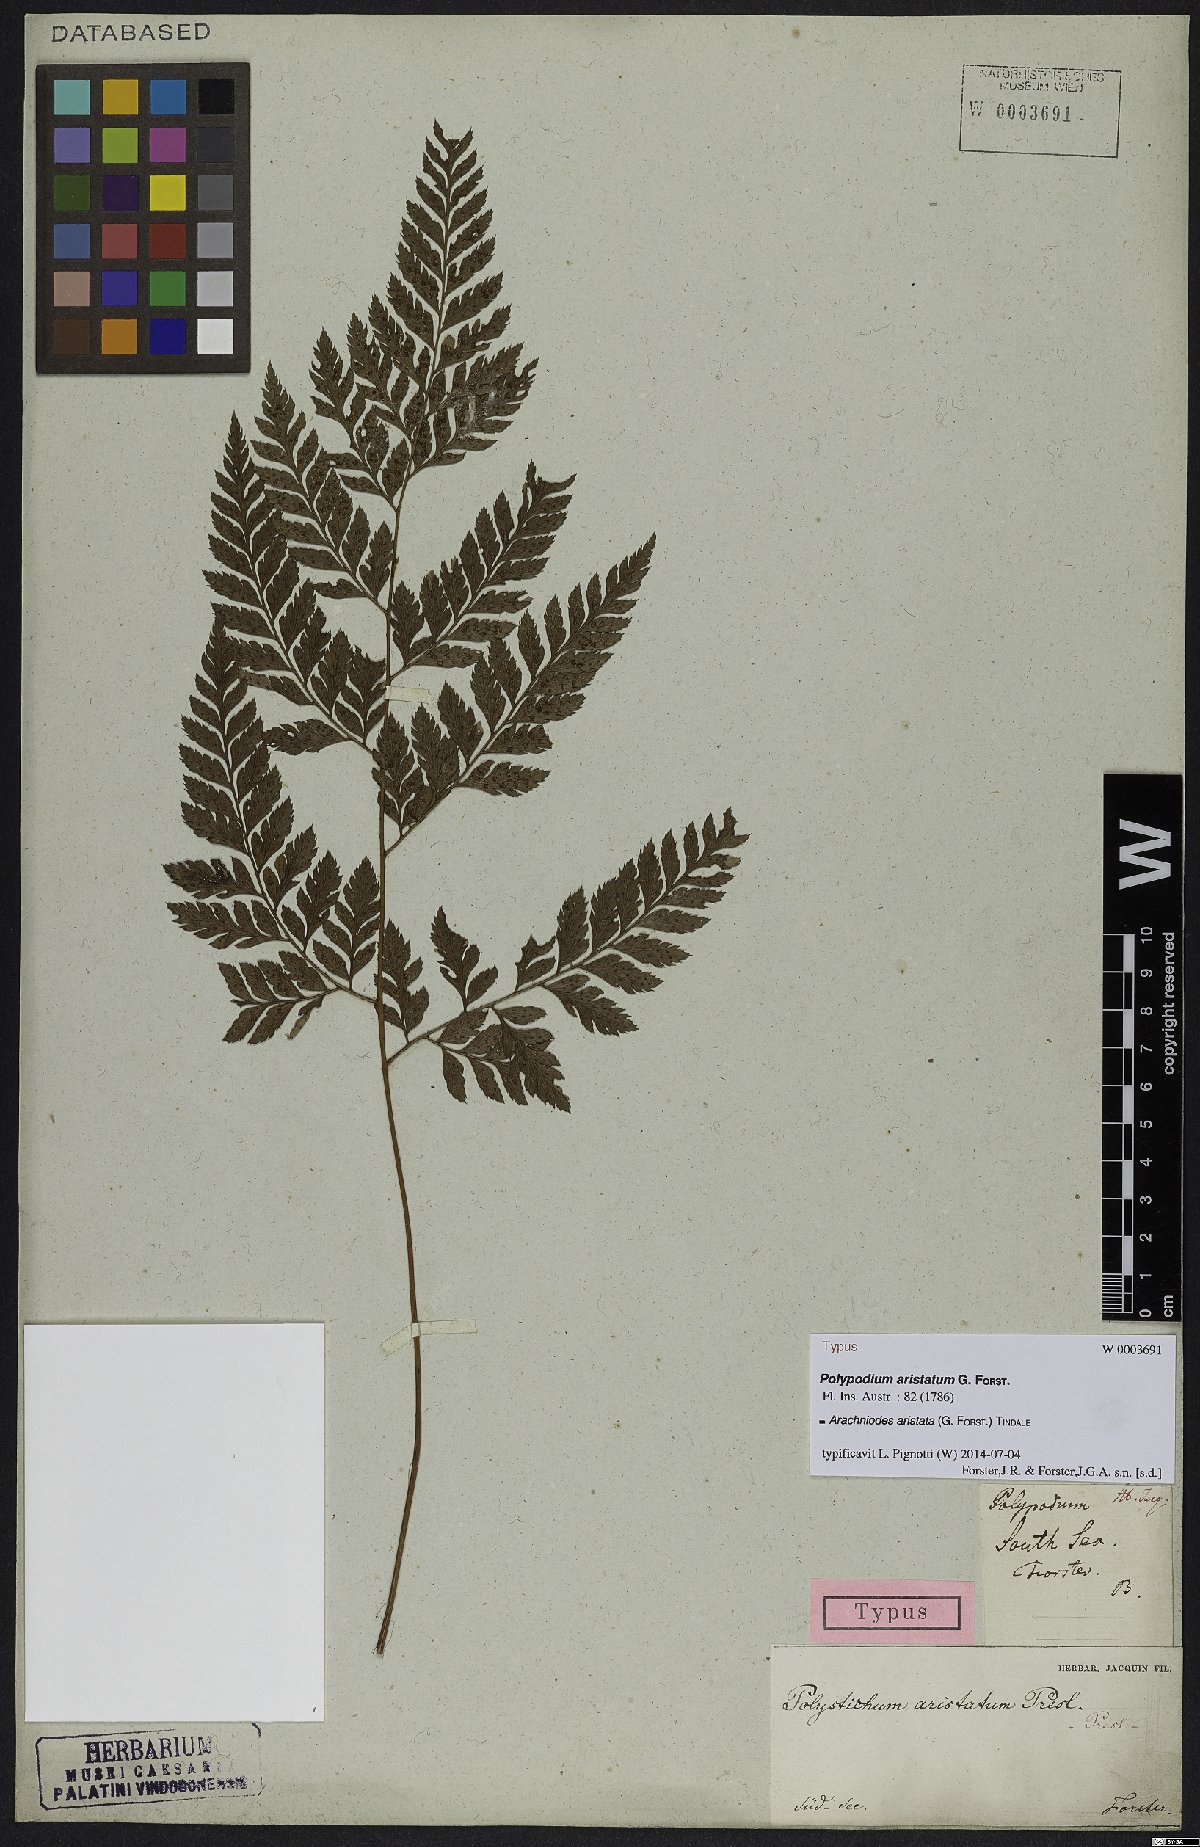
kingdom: Plantae
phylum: Tracheophyta
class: Polypodiopsida
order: Polypodiales
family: Dryopteridaceae
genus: Arachniodes
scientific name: Arachniodes aristata
